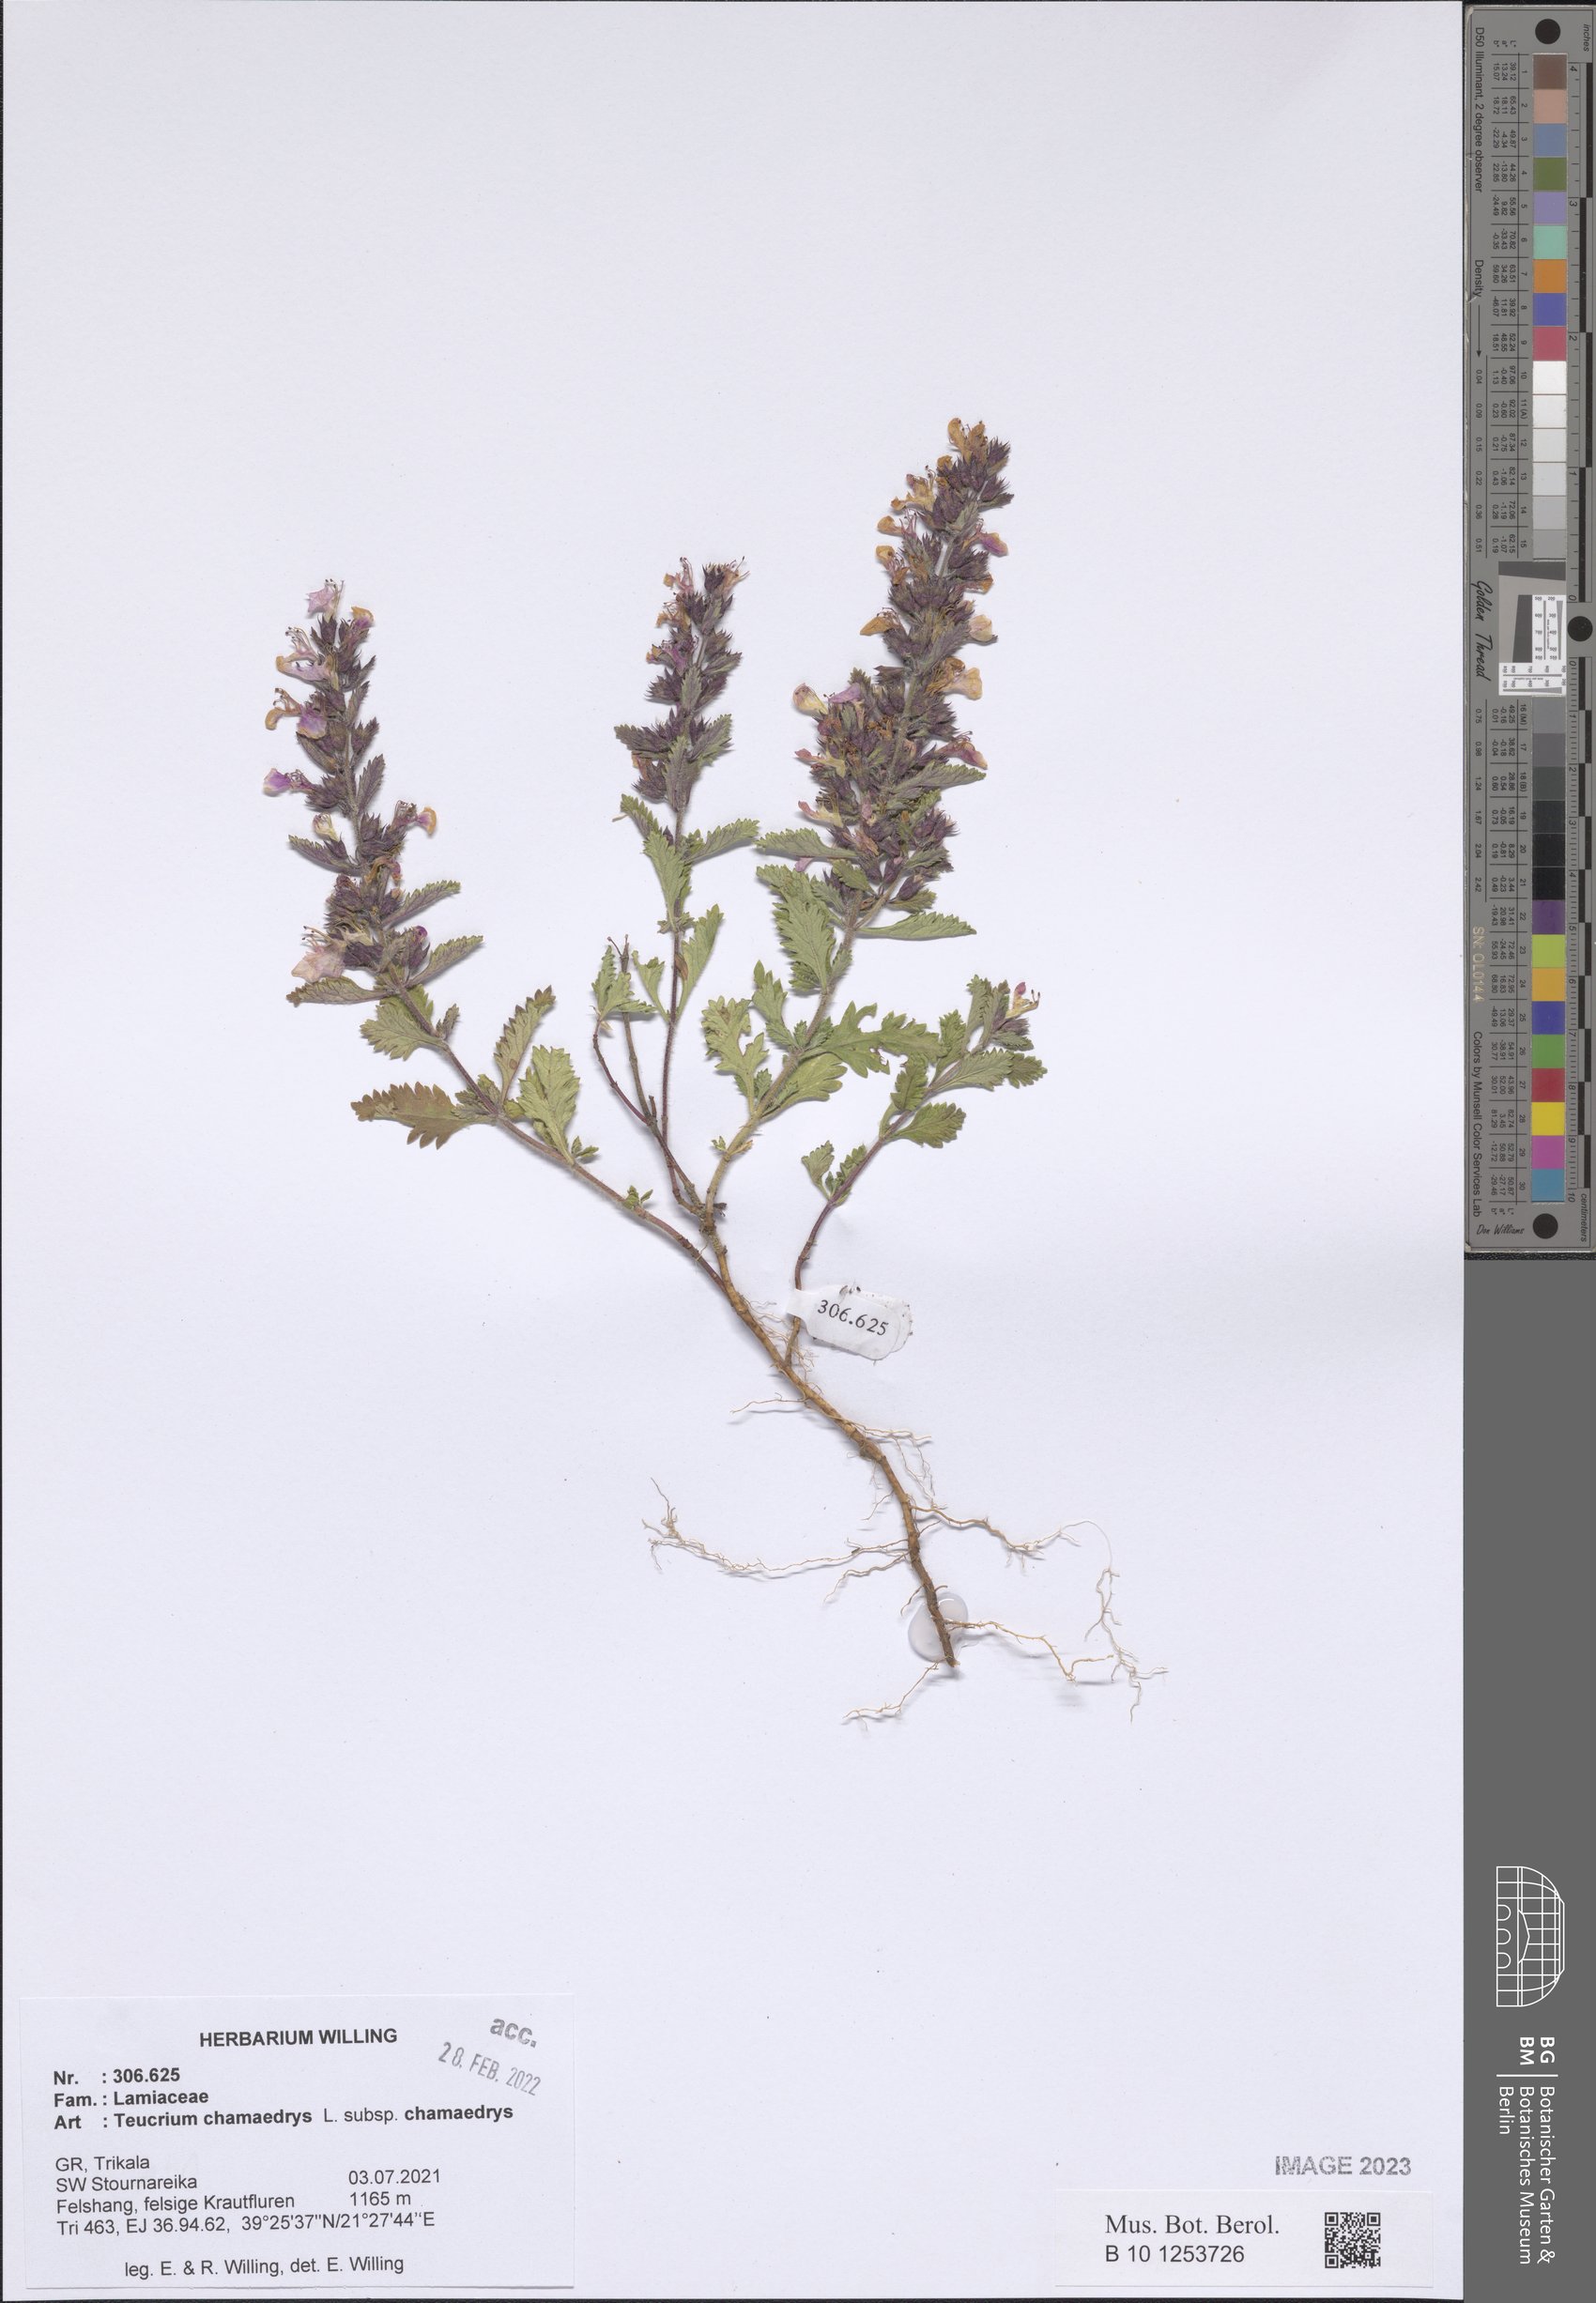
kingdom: Plantae
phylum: Tracheophyta
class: Magnoliopsida
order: Lamiales
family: Lamiaceae
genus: Teucrium
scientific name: Teucrium chamaedrys
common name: Wall germander
